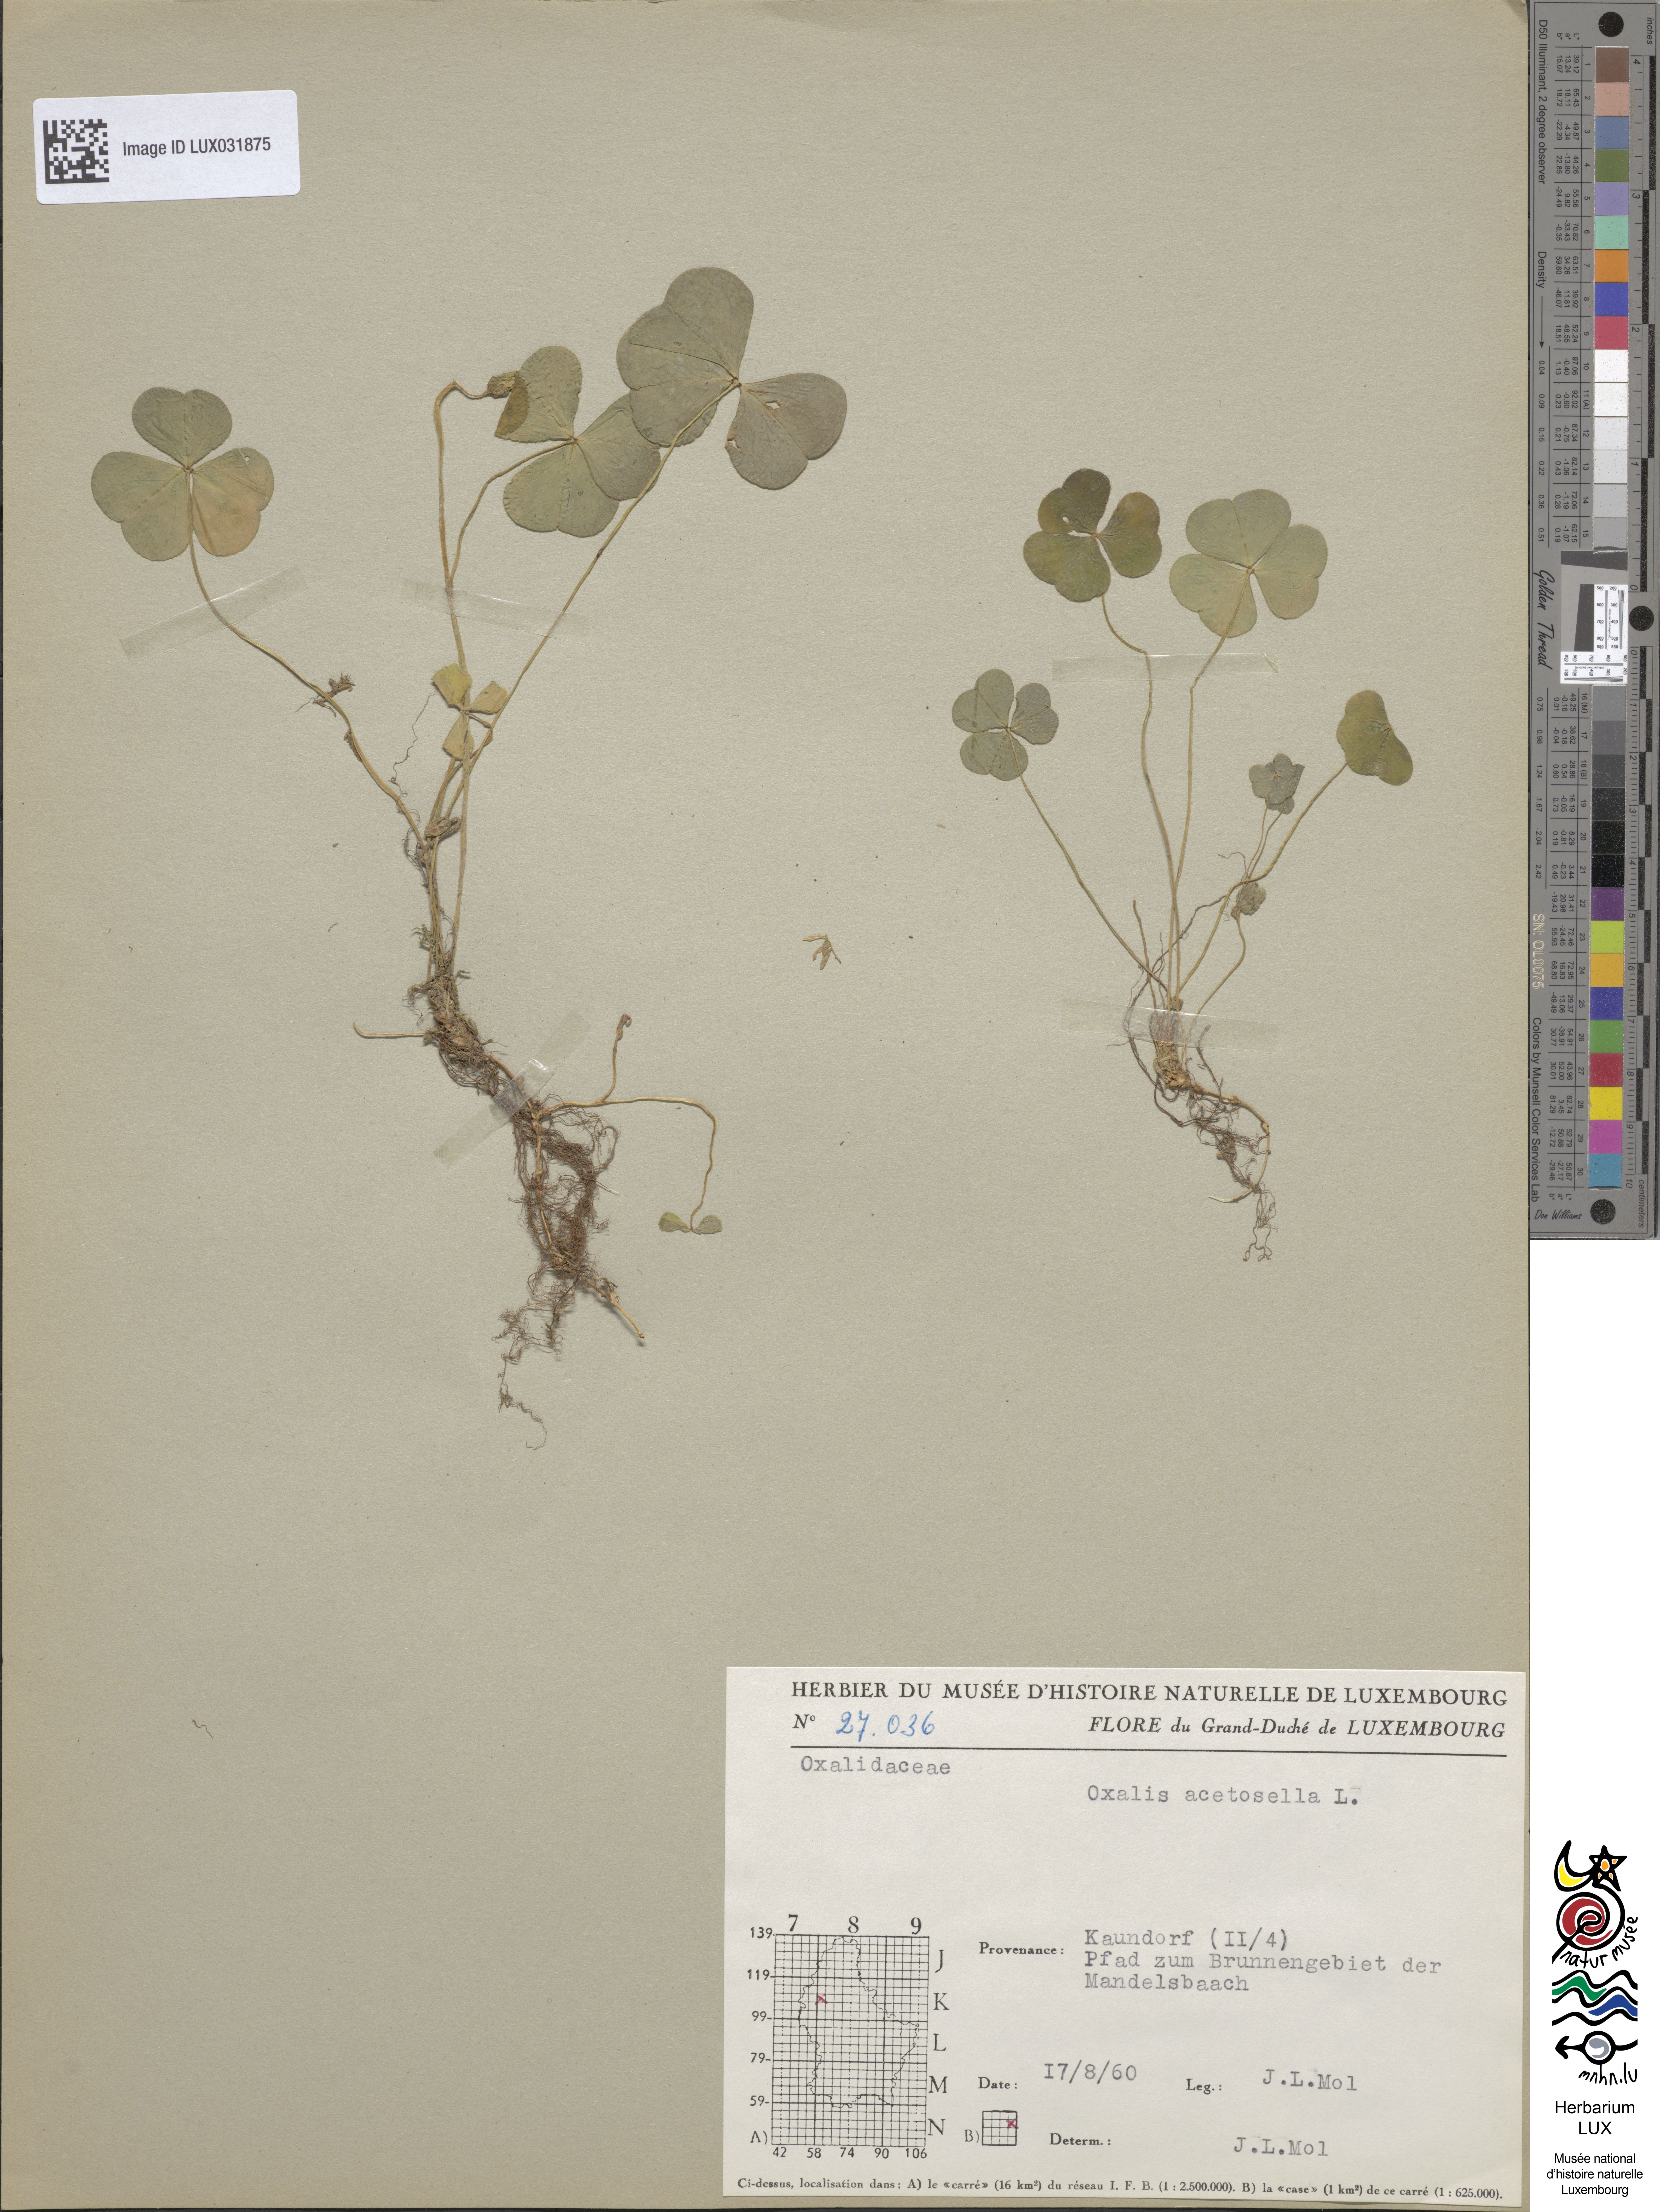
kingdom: Plantae
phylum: Tracheophyta
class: Magnoliopsida
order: Oxalidales
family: Oxalidaceae
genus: Oxalis
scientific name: Oxalis acetosella
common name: Wood-sorrel
